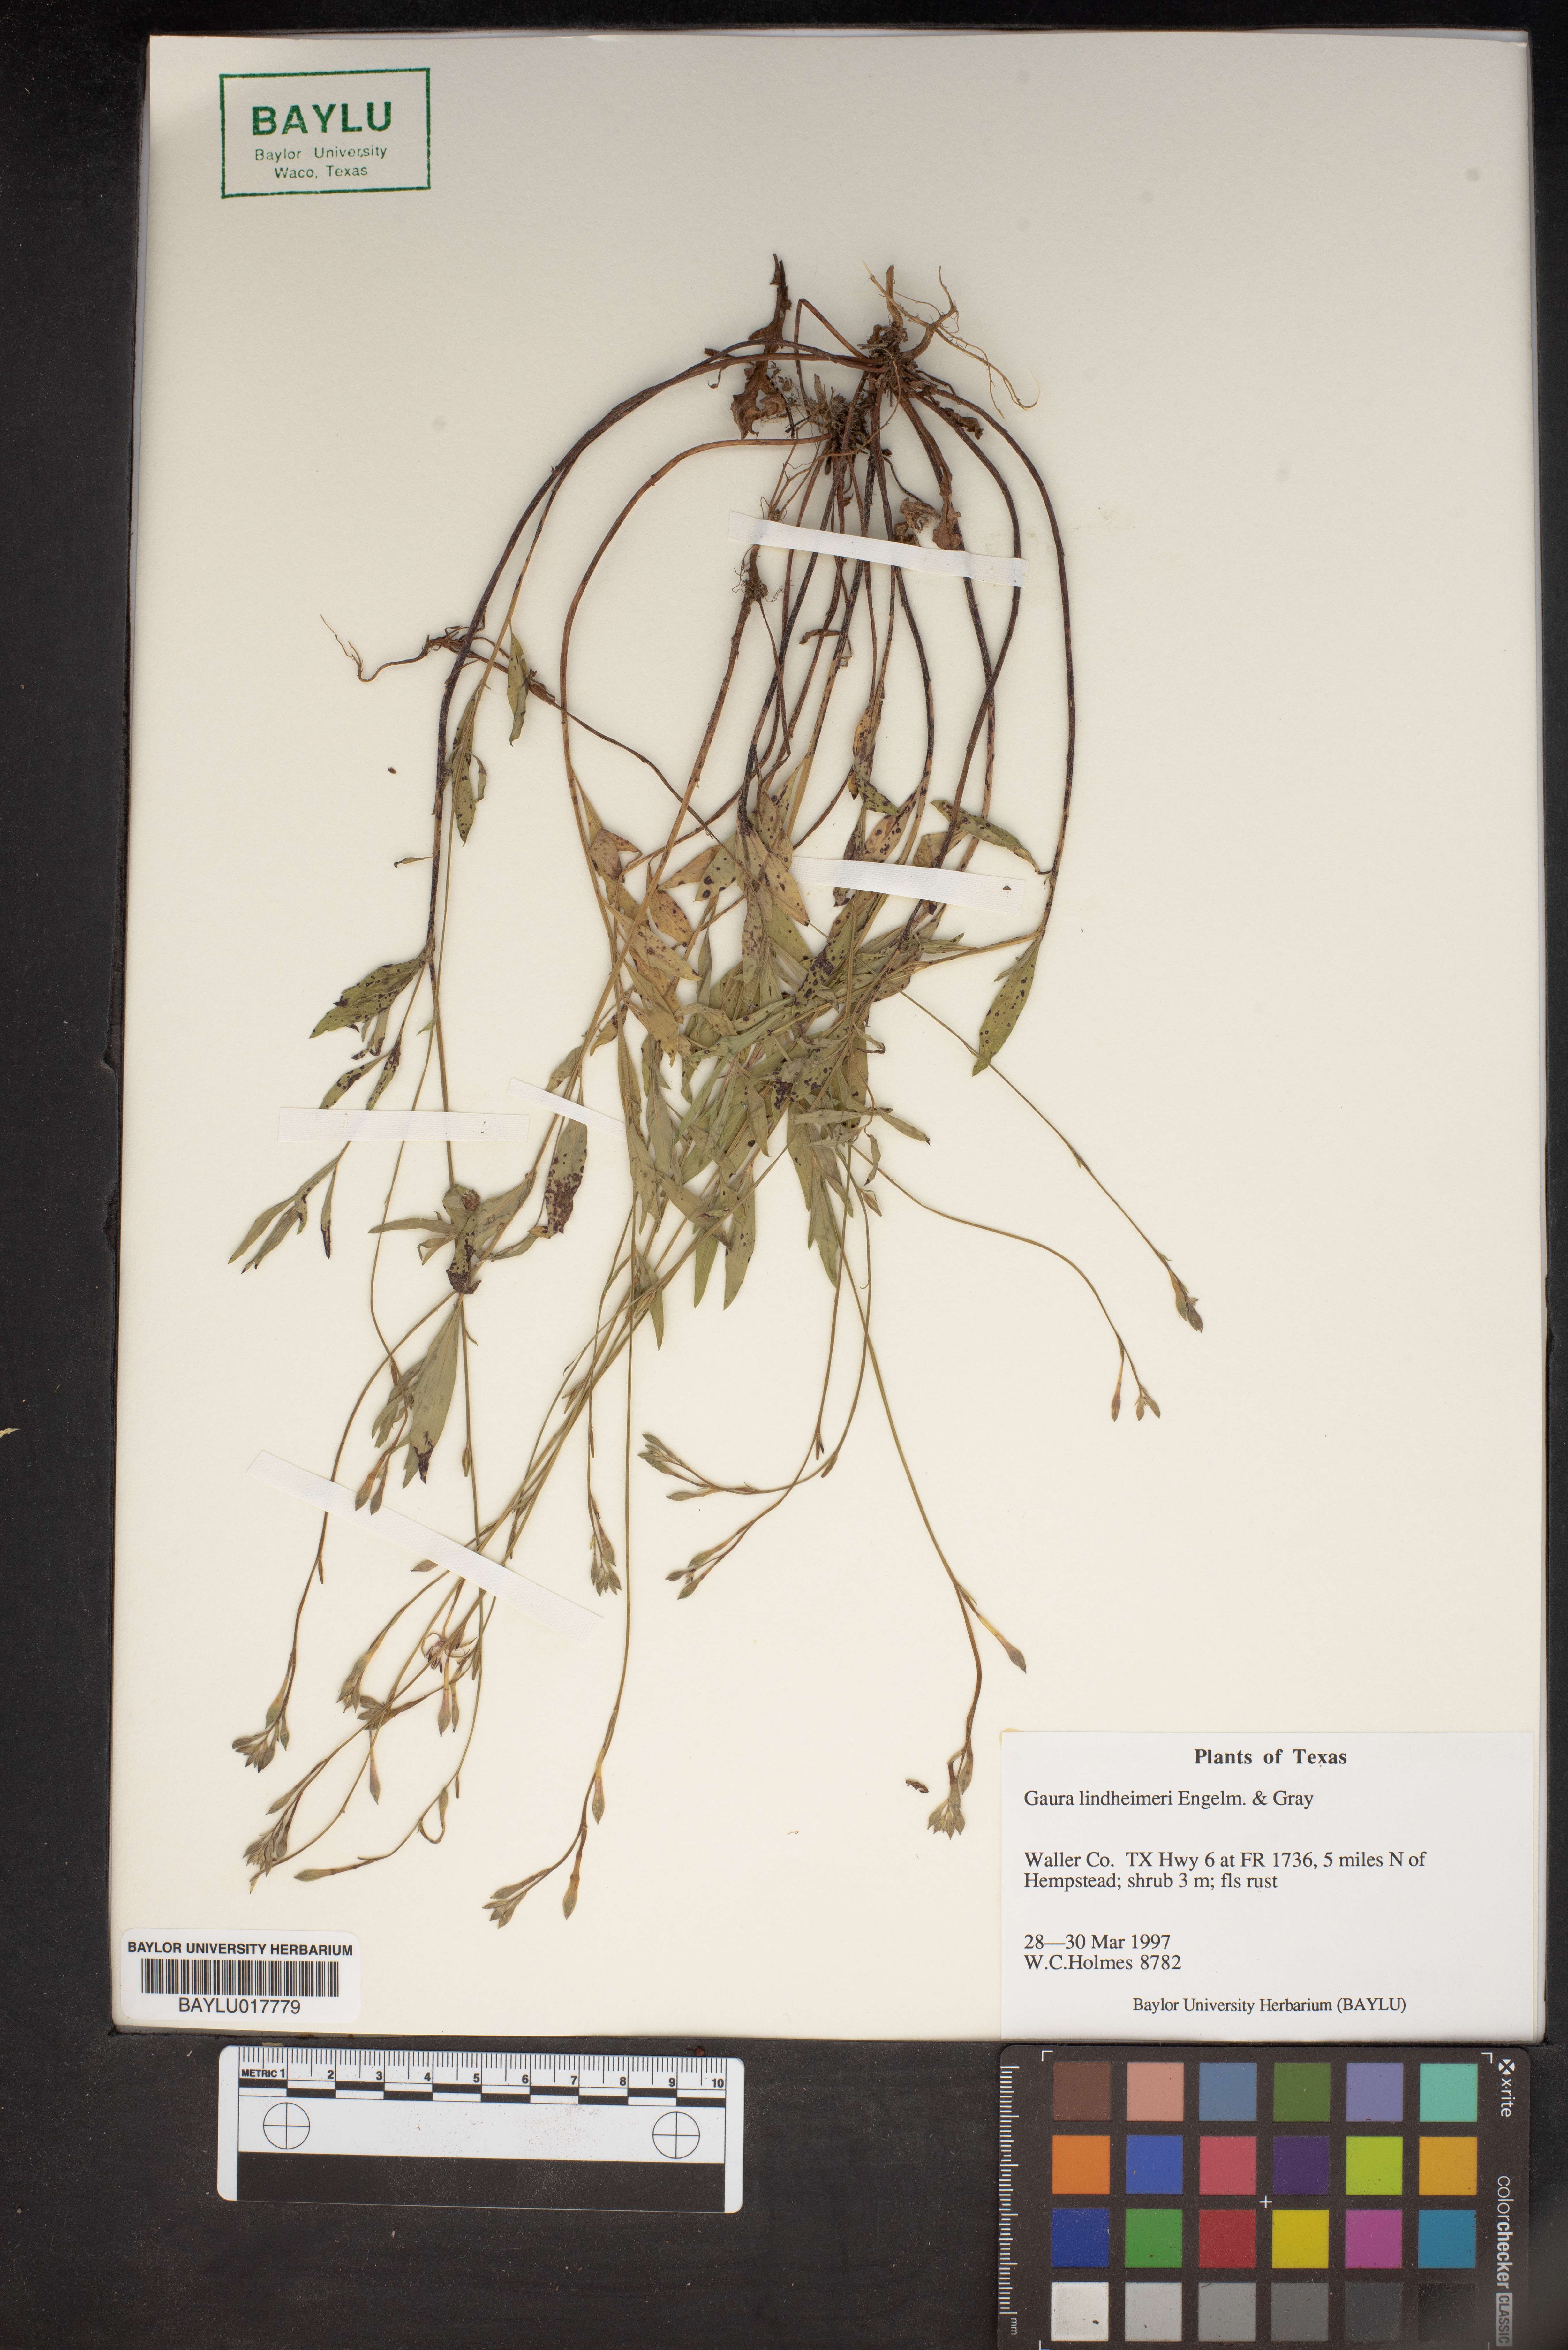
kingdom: Plantae
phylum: Tracheophyta
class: Magnoliopsida
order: Myrtales
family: Onagraceae
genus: Oenothera
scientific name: Oenothera lindheimeri
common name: Lindheimer's beeblossom
